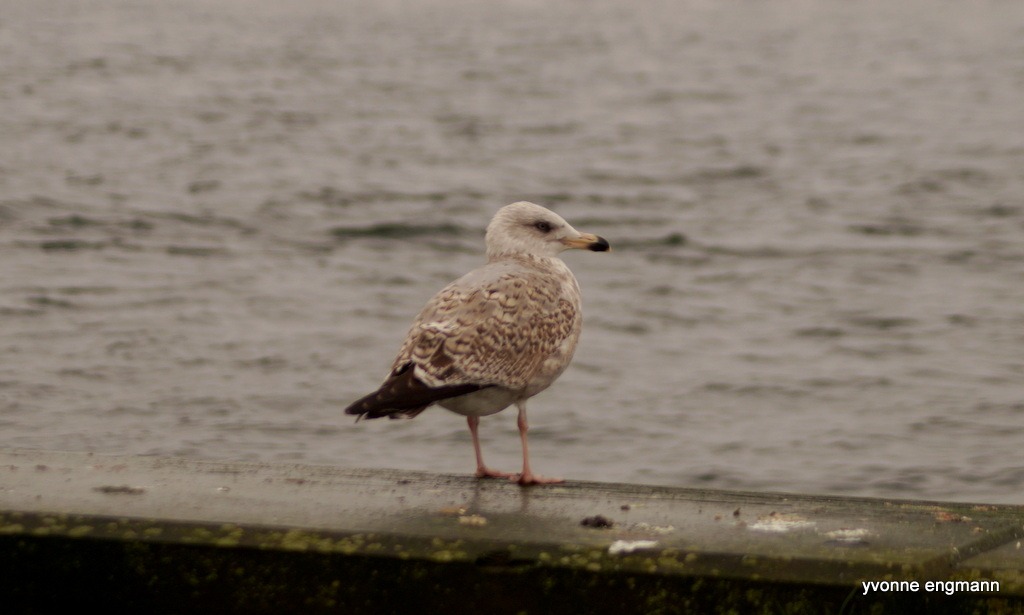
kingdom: Animalia
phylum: Chordata
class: Aves
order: Charadriiformes
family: Laridae
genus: Larus
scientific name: Larus argentatus
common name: Sølvmåge
